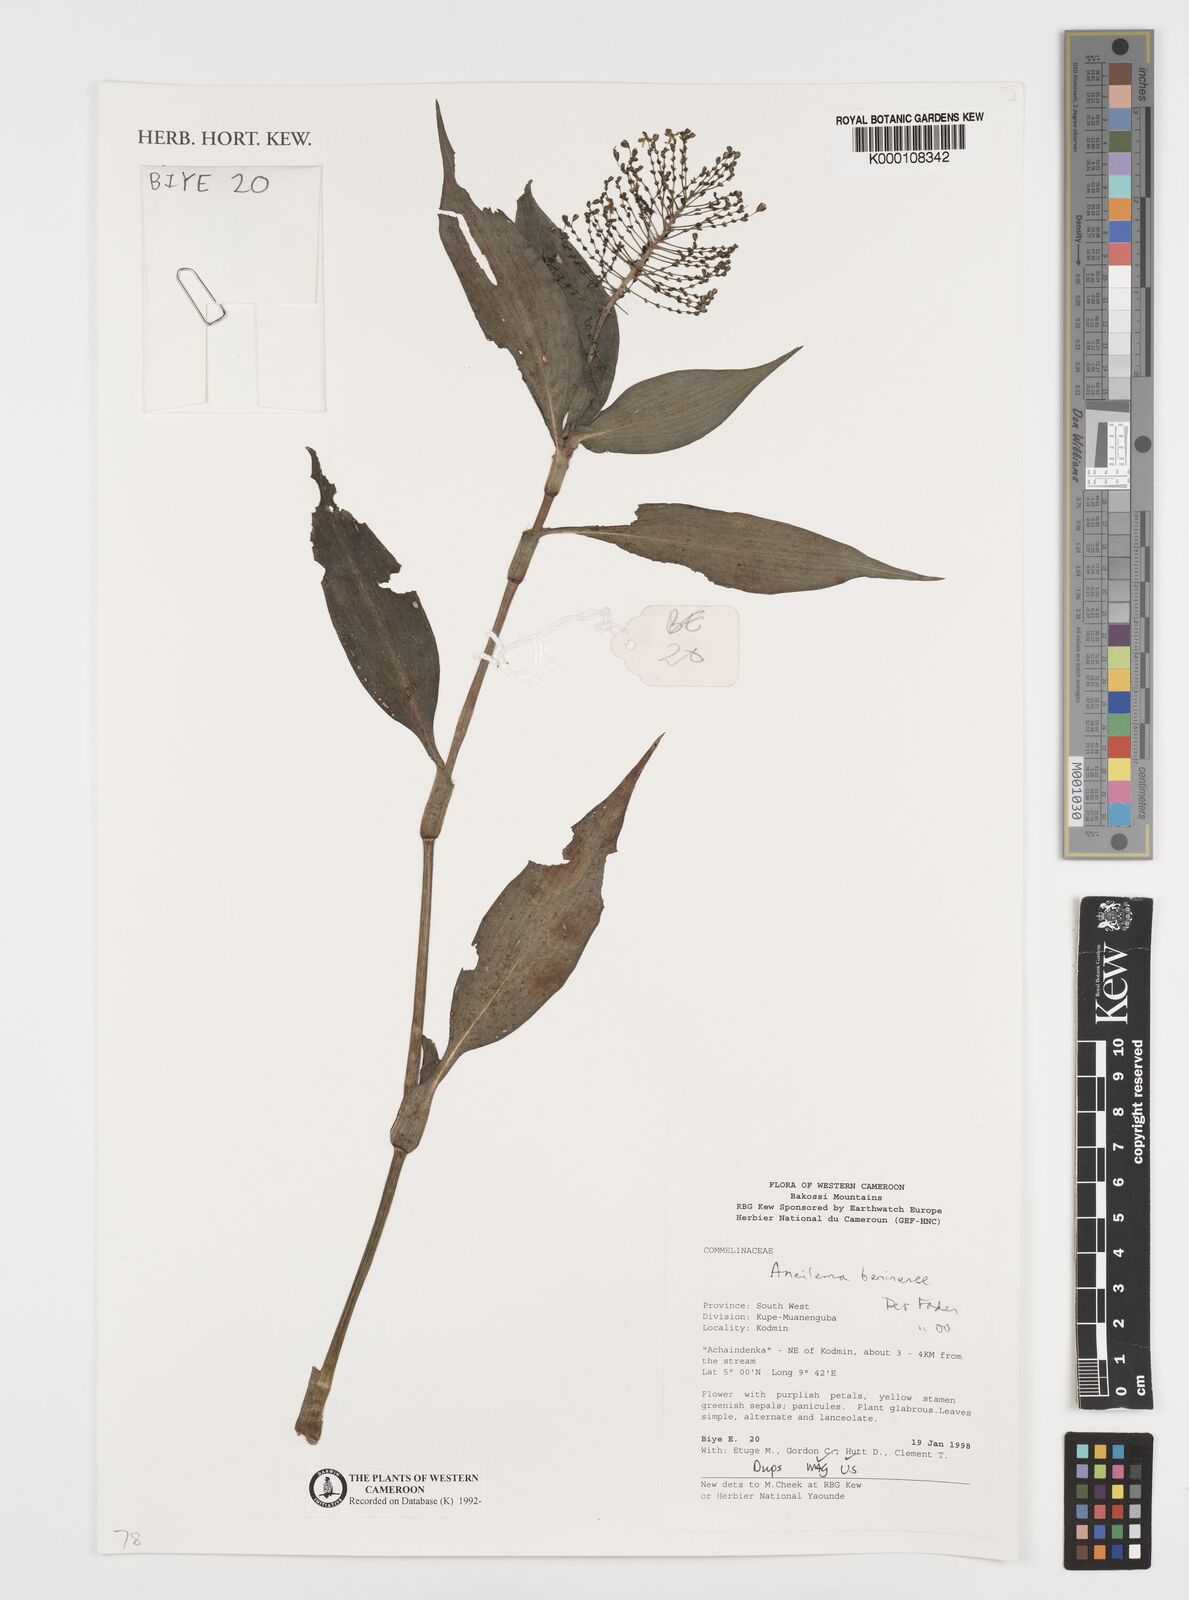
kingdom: Plantae
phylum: Tracheophyta
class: Liliopsida
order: Commelinales
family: Commelinaceae
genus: Aneilema
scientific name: Aneilema beniniense
